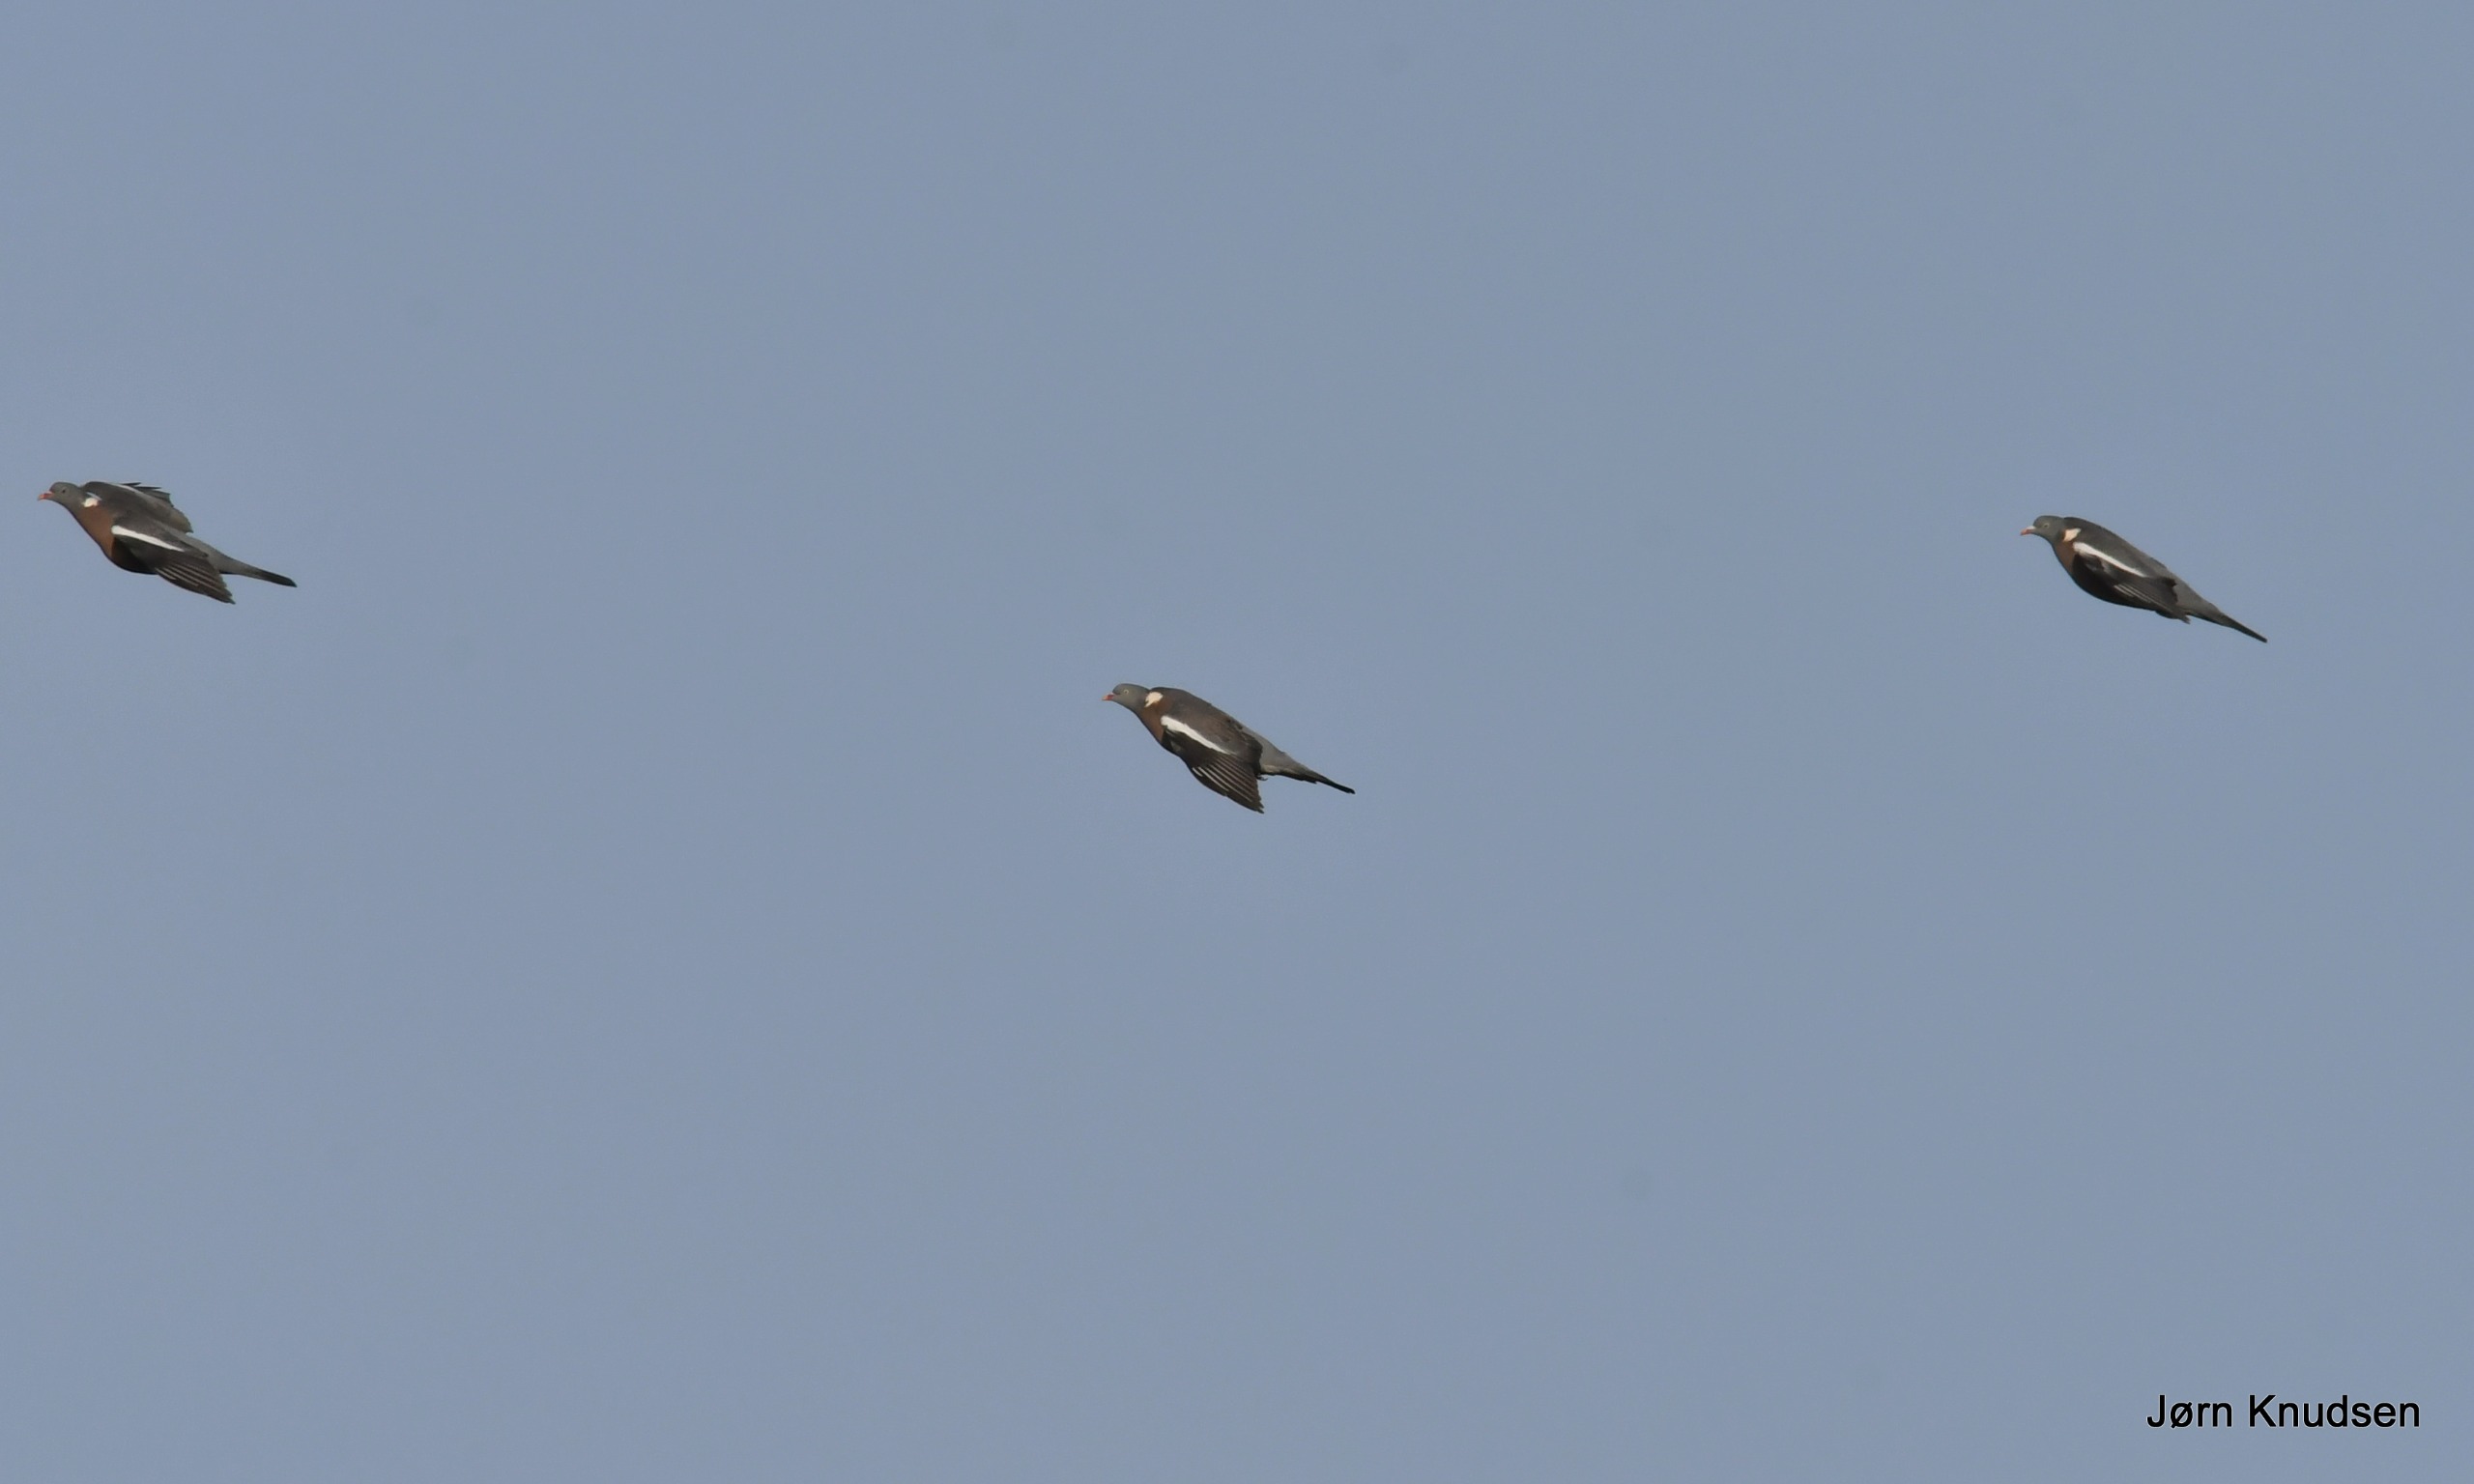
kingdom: Animalia
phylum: Chordata
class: Aves
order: Columbiformes
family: Columbidae
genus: Columba
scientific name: Columba palumbus
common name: Ringdue
